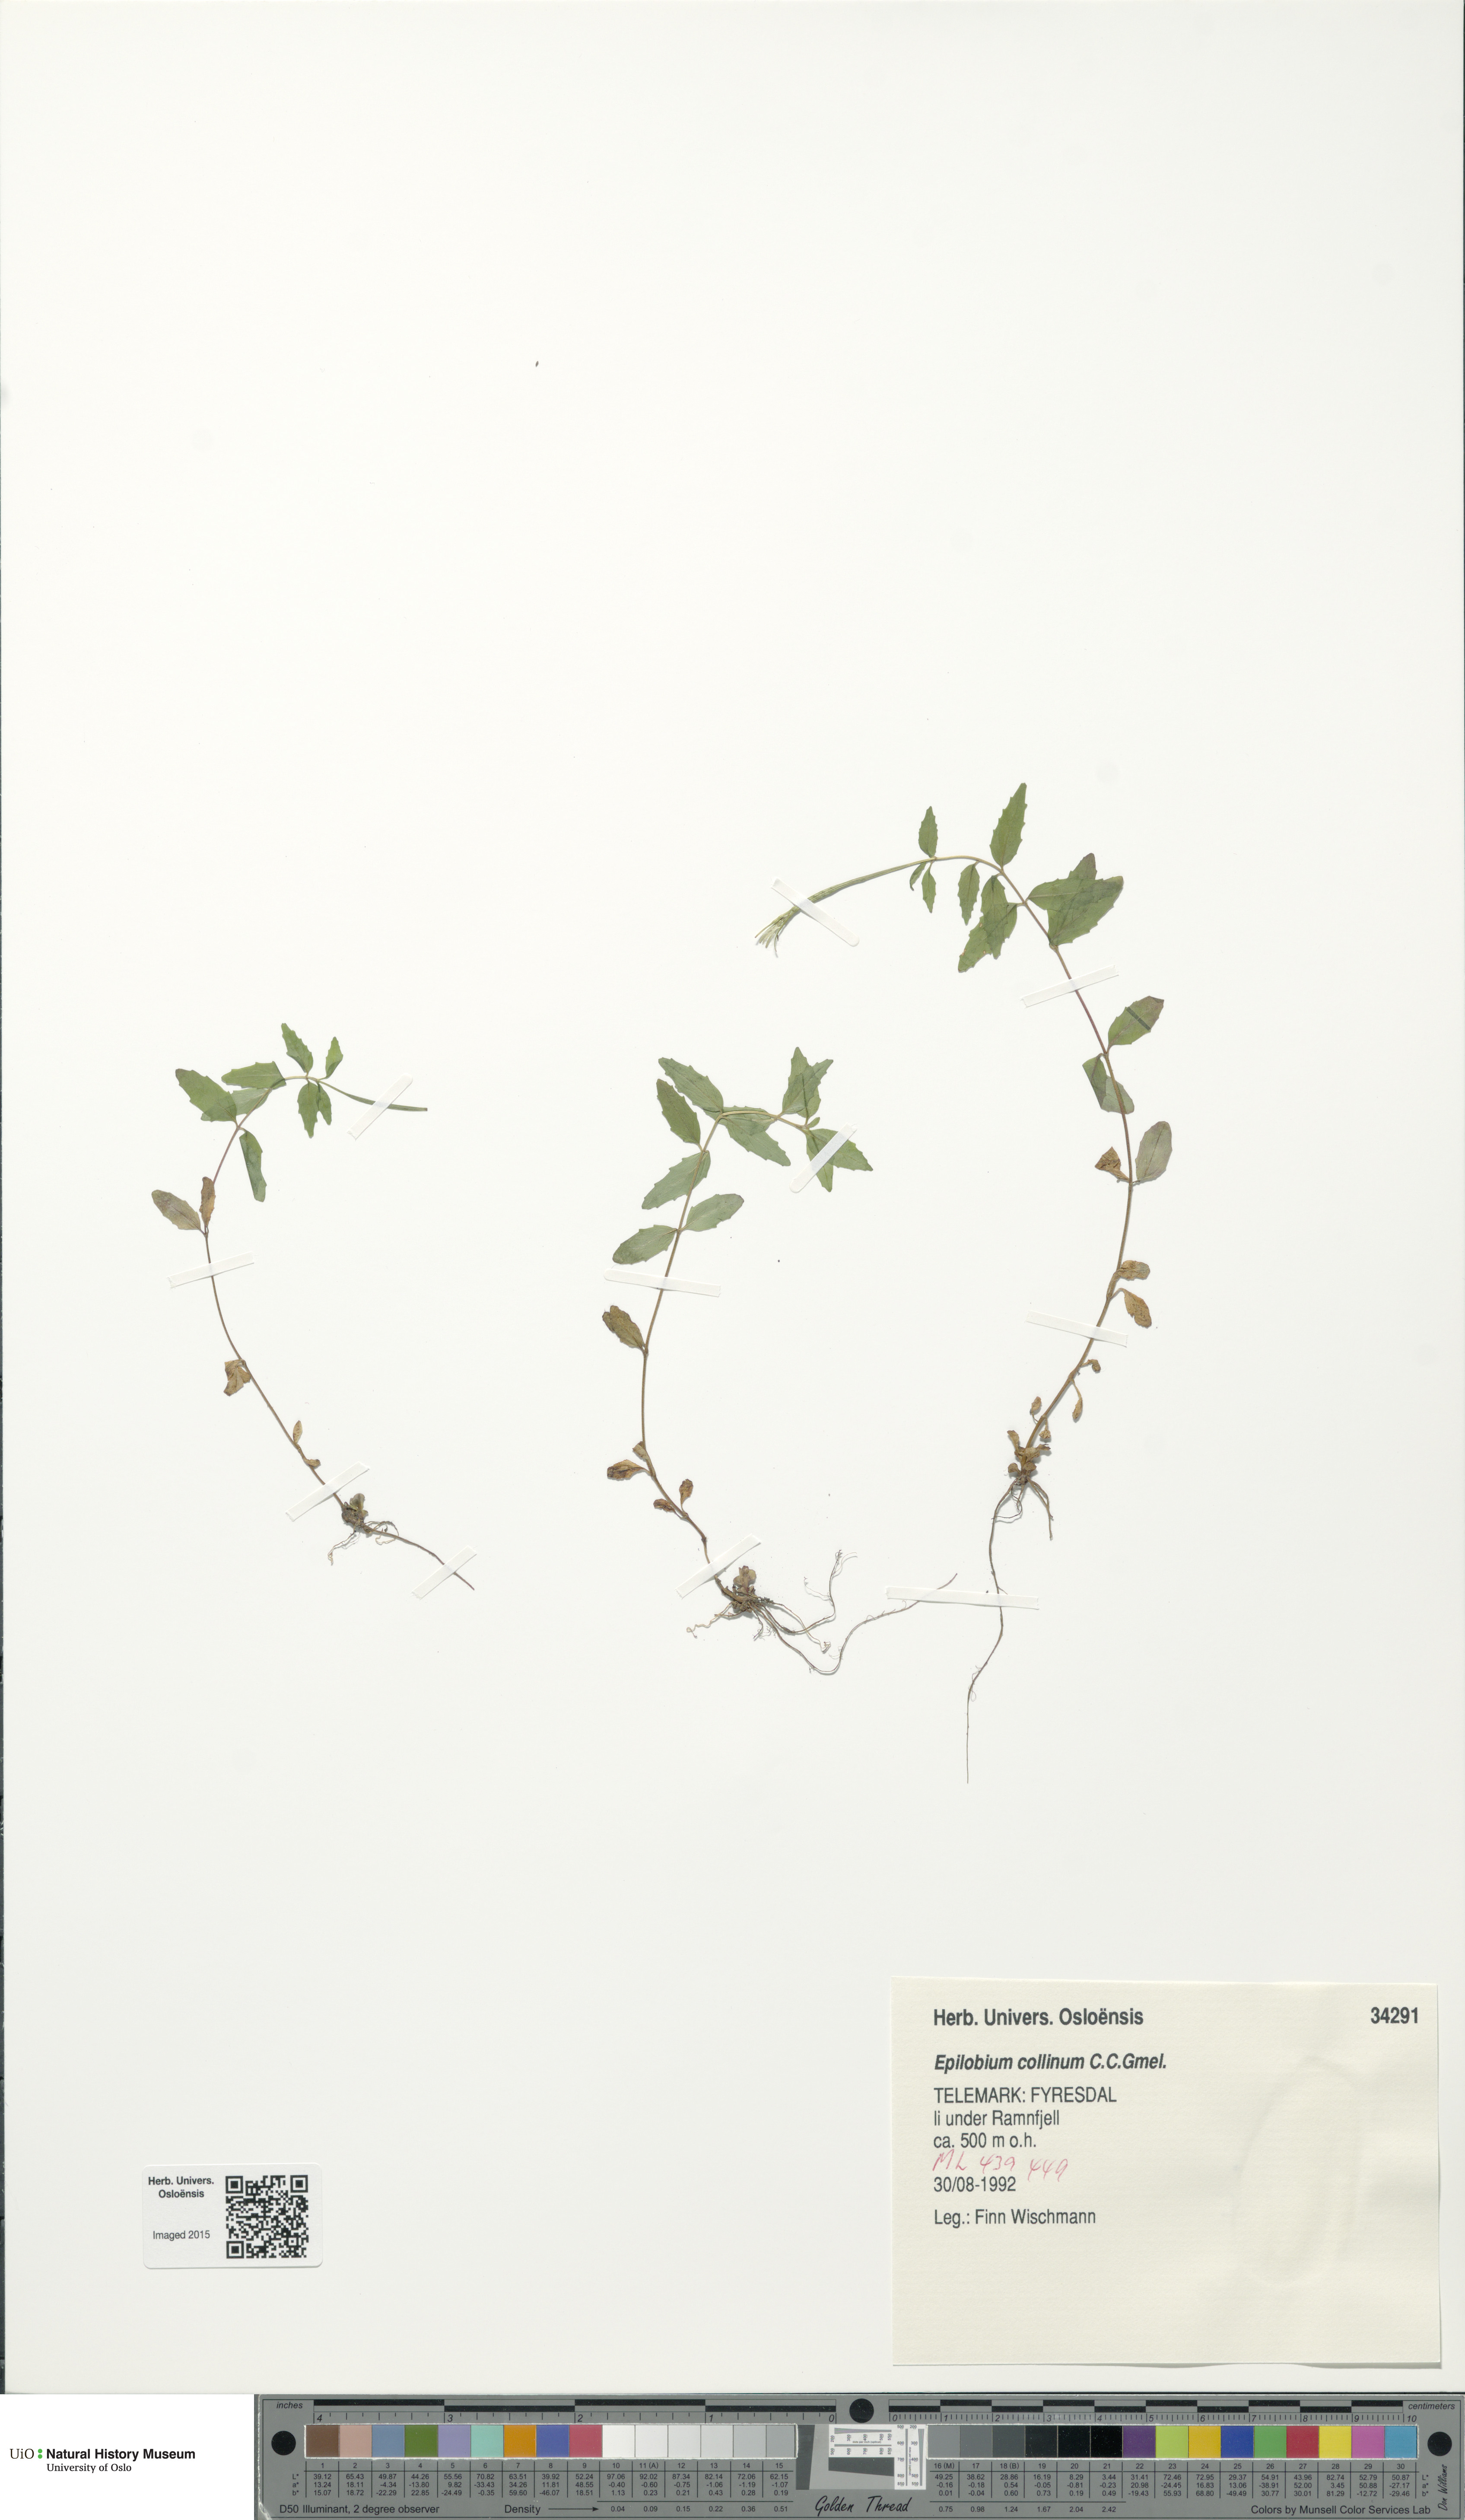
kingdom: Plantae
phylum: Tracheophyta
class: Magnoliopsida
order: Myrtales
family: Onagraceae
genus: Epilobium
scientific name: Epilobium collinum
